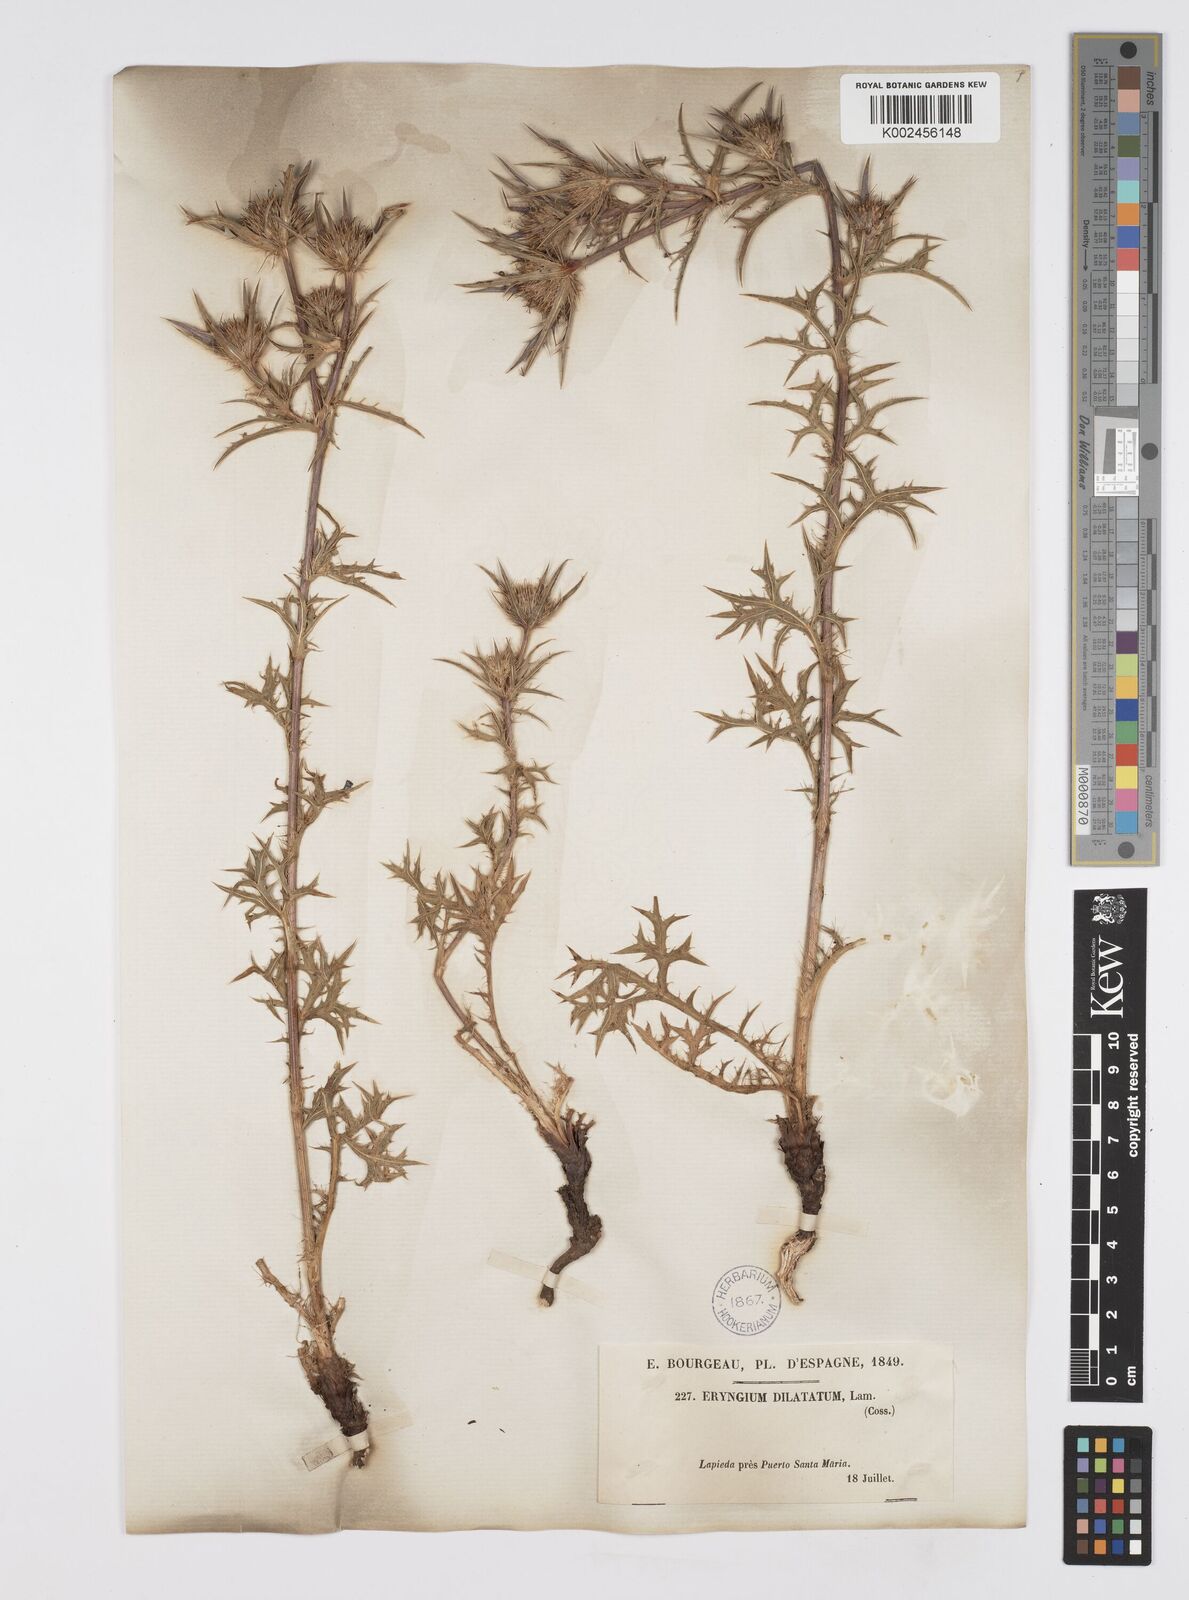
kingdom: Plantae
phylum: Tracheophyta
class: Magnoliopsida
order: Apiales
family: Apiaceae
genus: Eryngium
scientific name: Eryngium dilatatum
